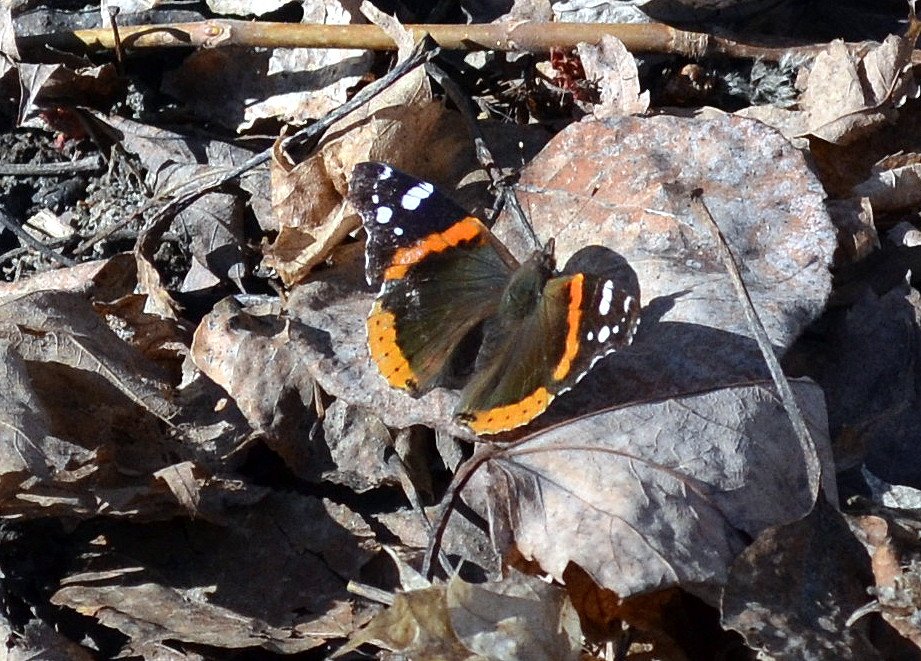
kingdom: Animalia
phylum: Arthropoda
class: Insecta
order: Lepidoptera
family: Nymphalidae
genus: Vanessa
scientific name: Vanessa atalanta
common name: Red Admiral
